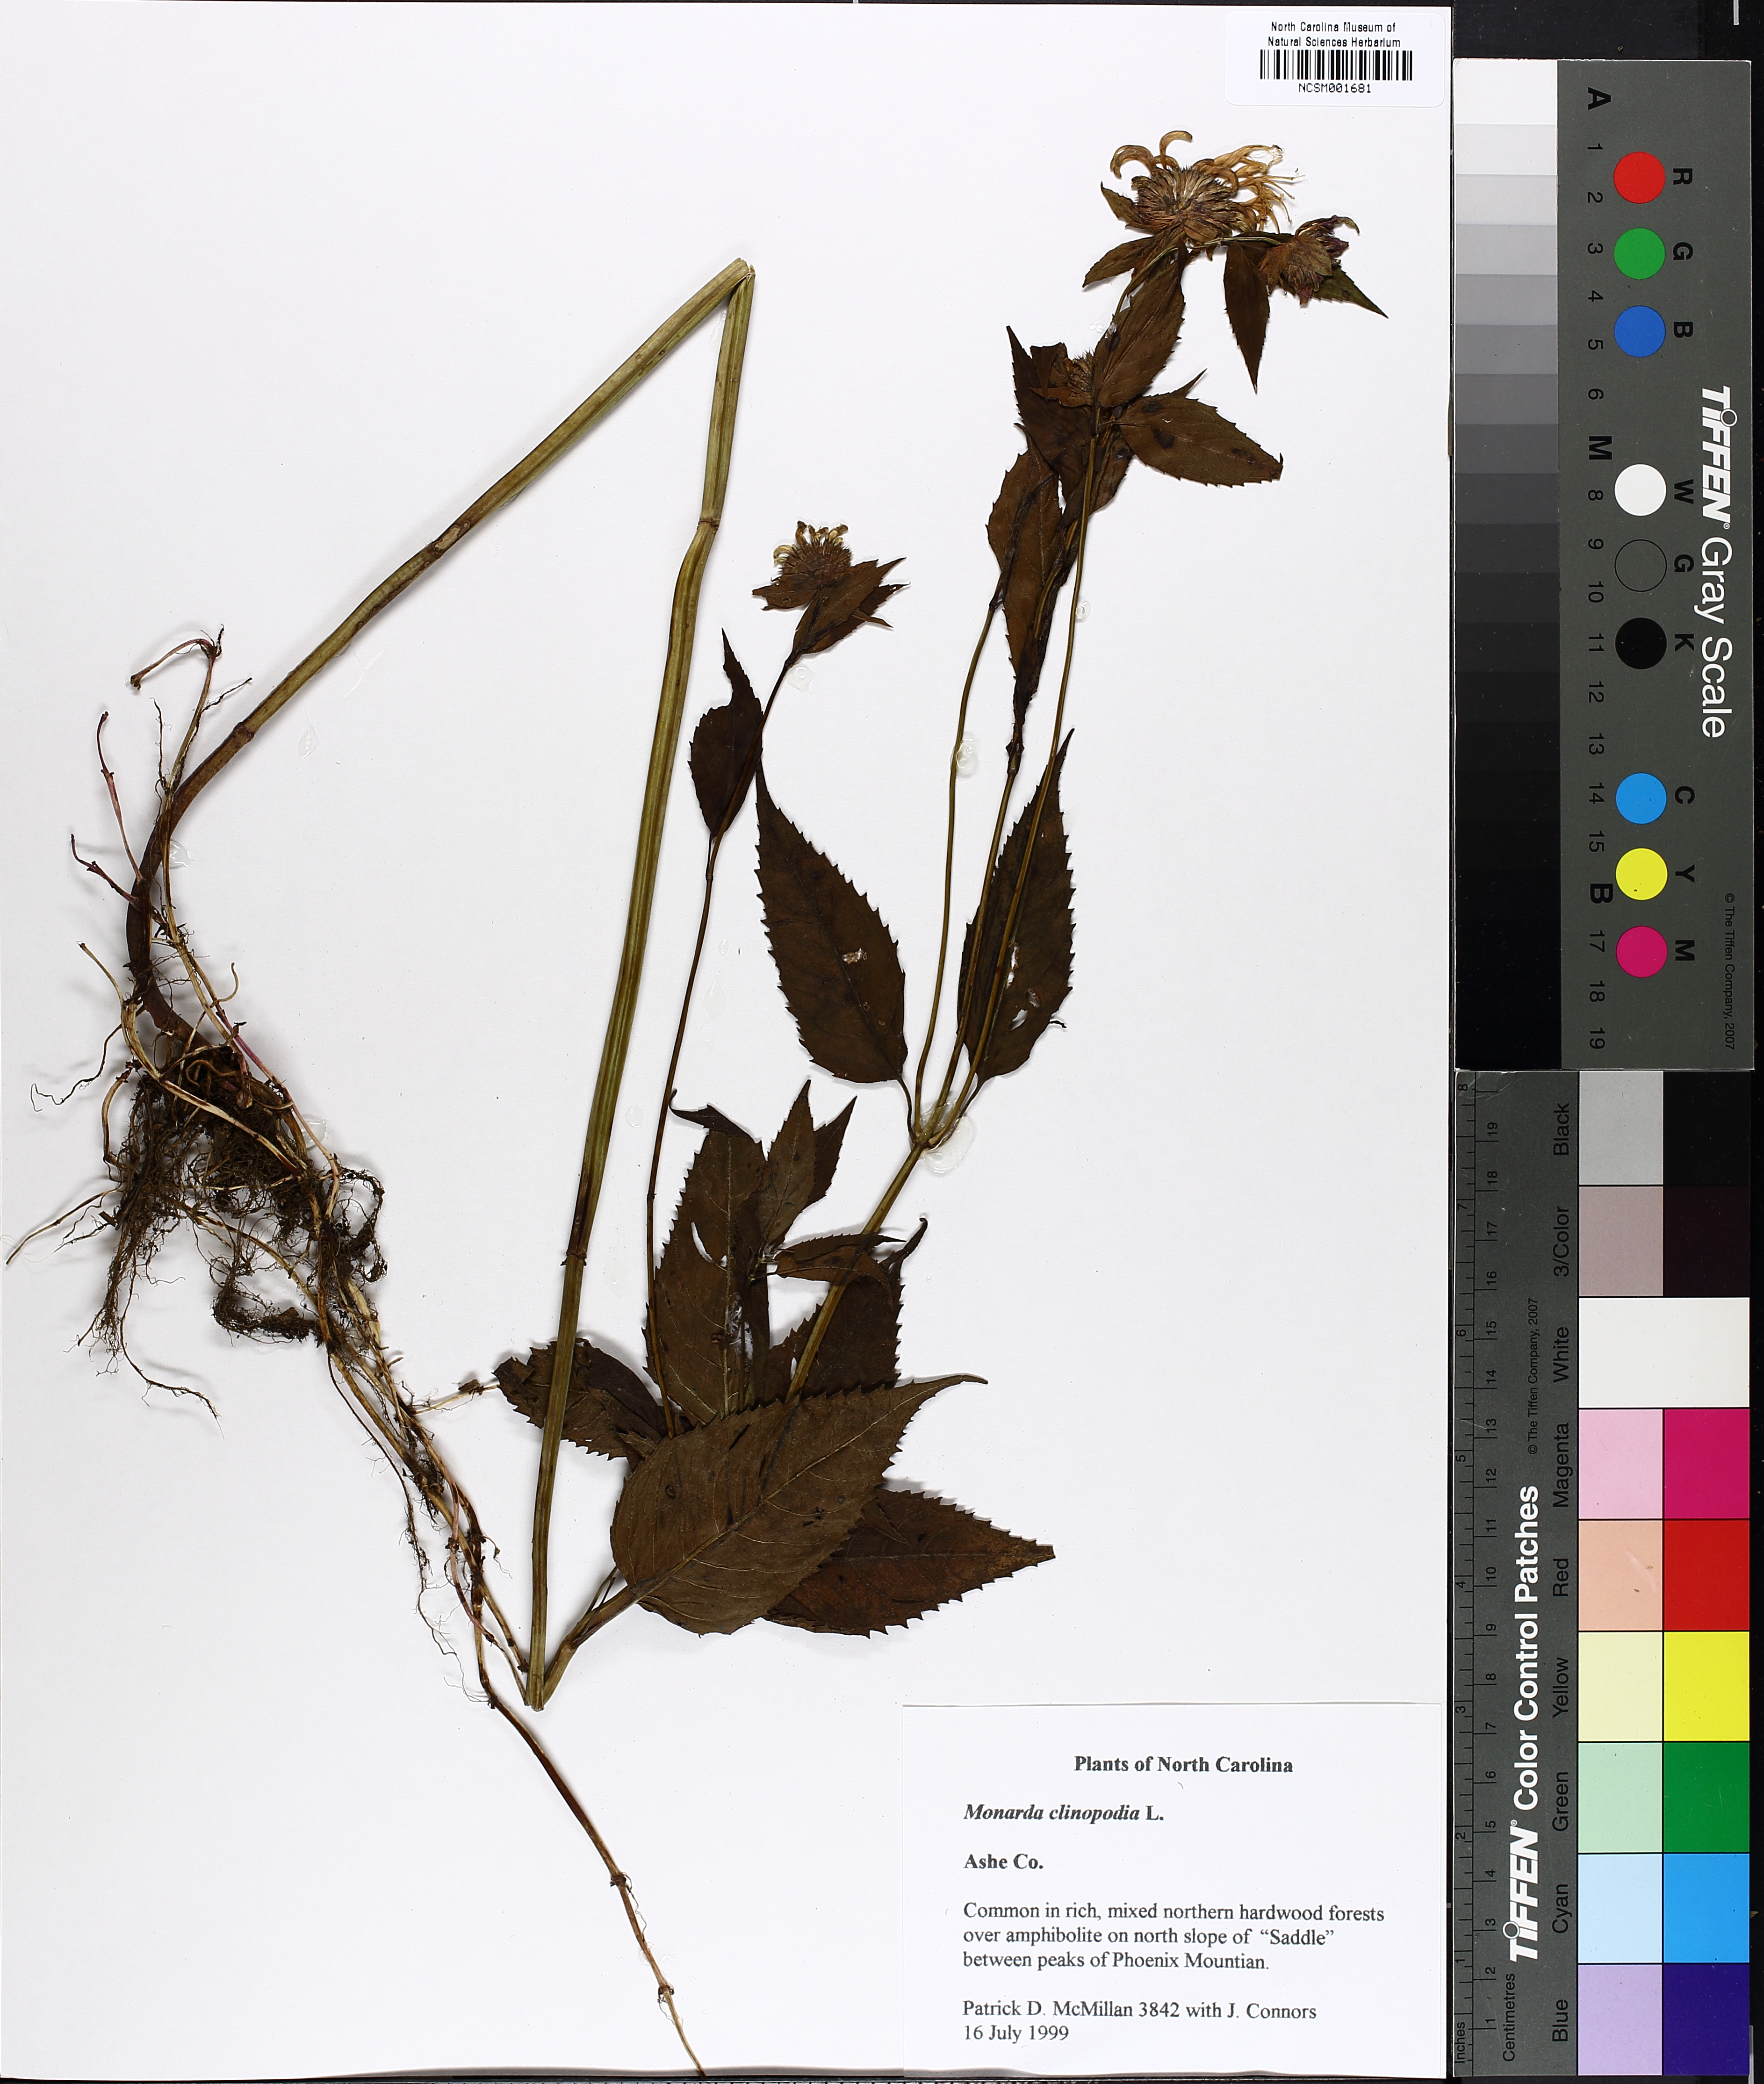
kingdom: Plantae
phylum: Tracheophyta
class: Magnoliopsida
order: Lamiales
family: Lamiaceae
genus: Monarda
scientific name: Monarda clinopodia
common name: Basil beebalm
